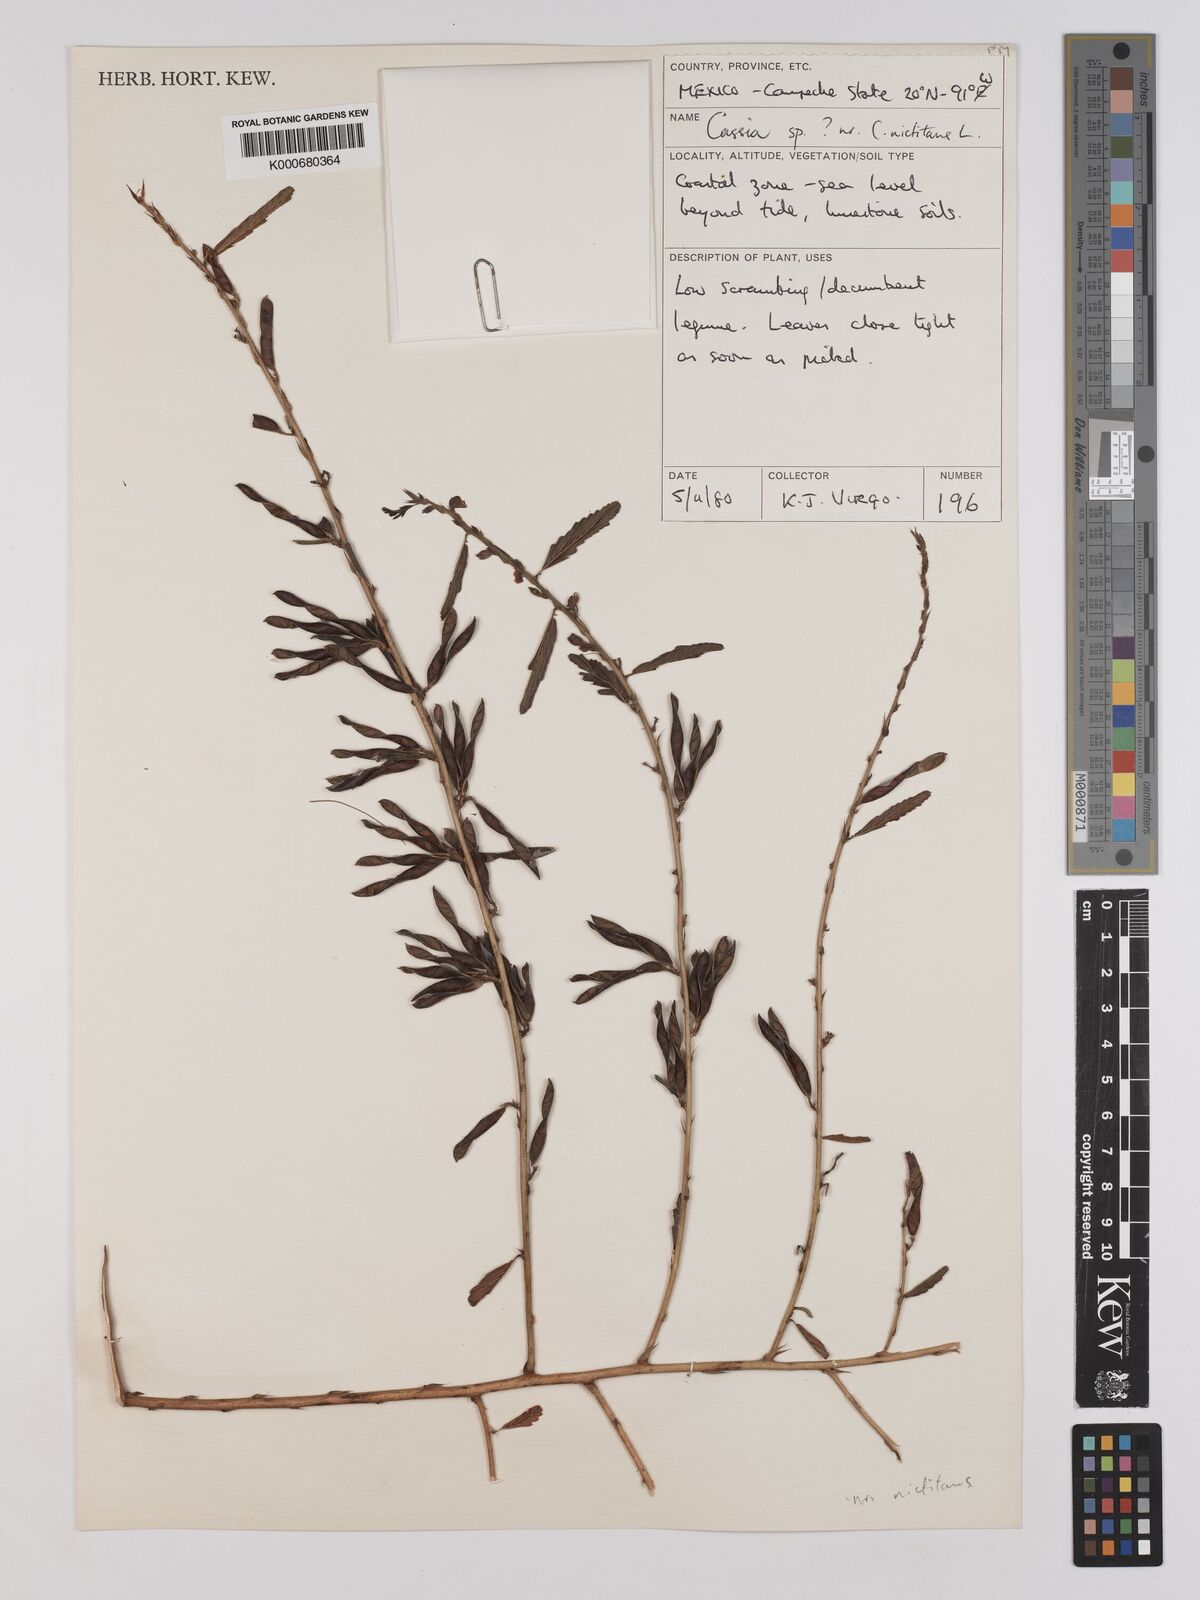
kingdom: Plantae
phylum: Tracheophyta
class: Magnoliopsida
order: Fabales
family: Fabaceae
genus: Chamaecrista
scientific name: Chamaecrista nictitans
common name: Sensitive cassia
